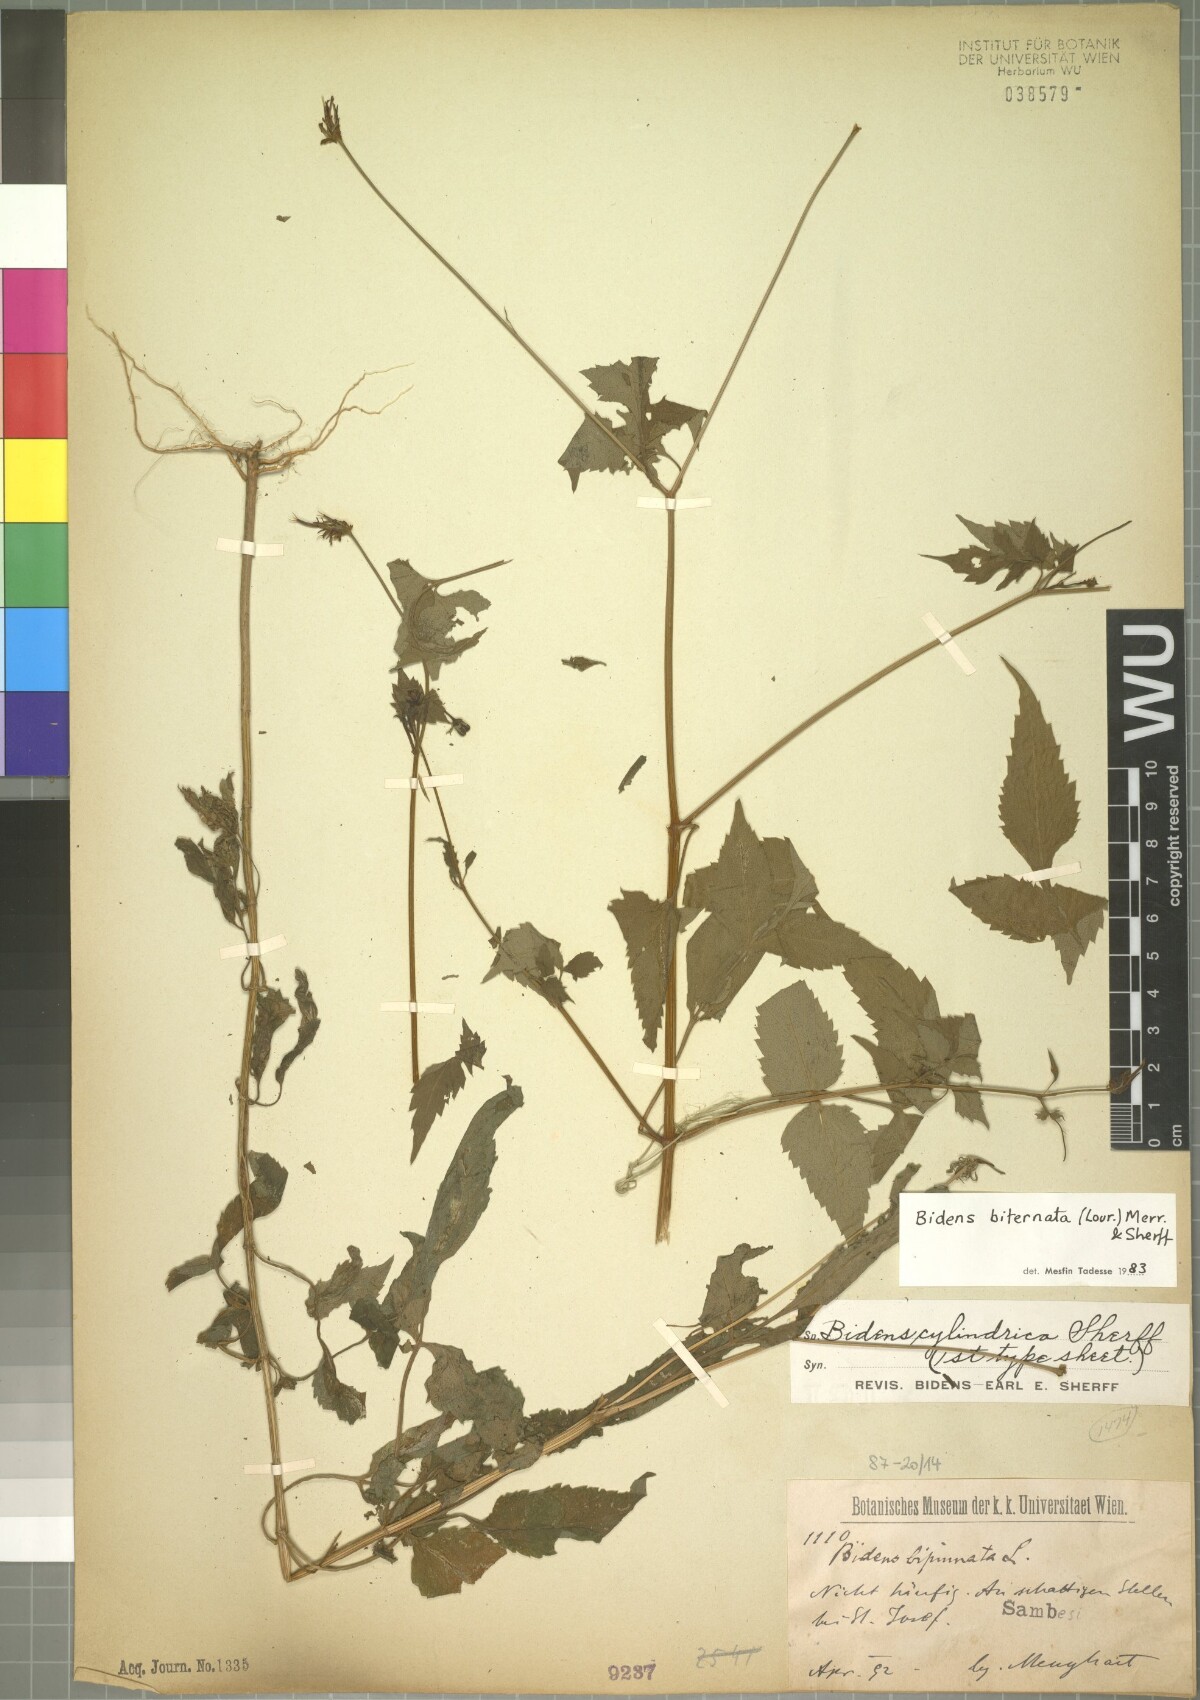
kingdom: Plantae
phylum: Tracheophyta
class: Magnoliopsida
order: Asterales
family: Asteraceae
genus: Bidens
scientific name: Bidens biternata
